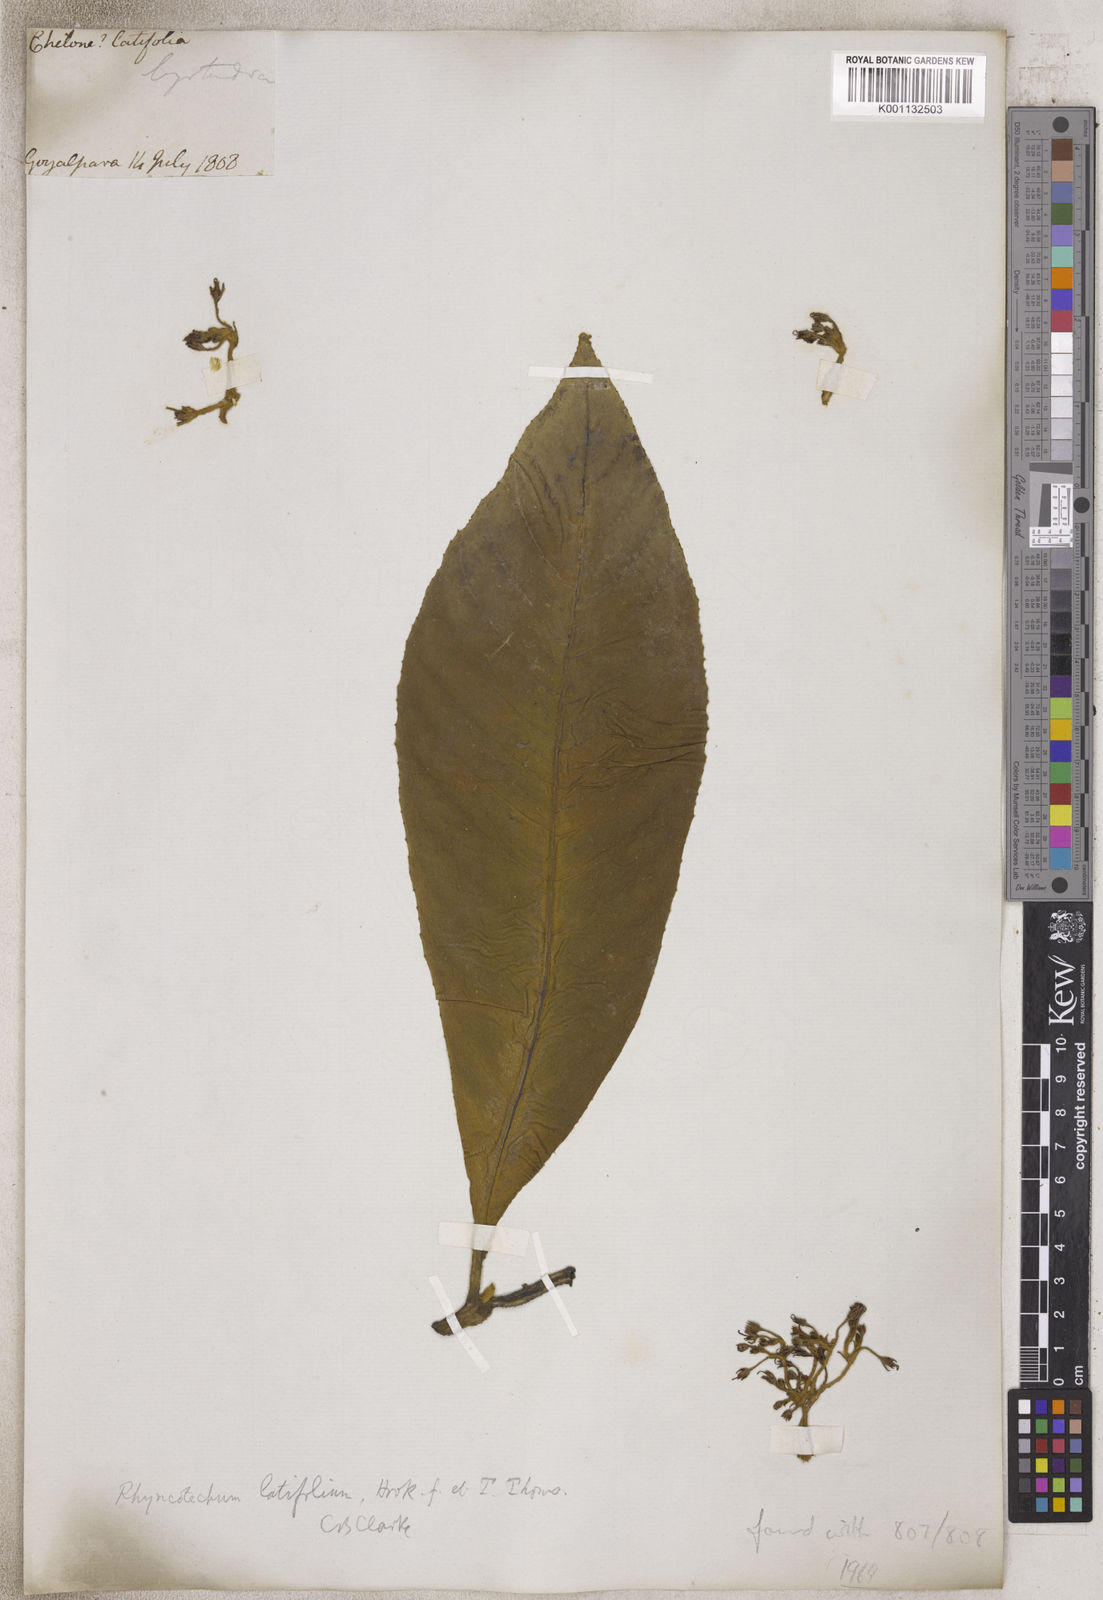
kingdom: Plantae
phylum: Tracheophyta
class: Magnoliopsida
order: Lamiales
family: Gesneriaceae
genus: Rhynchotechum
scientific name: Rhynchotechum
